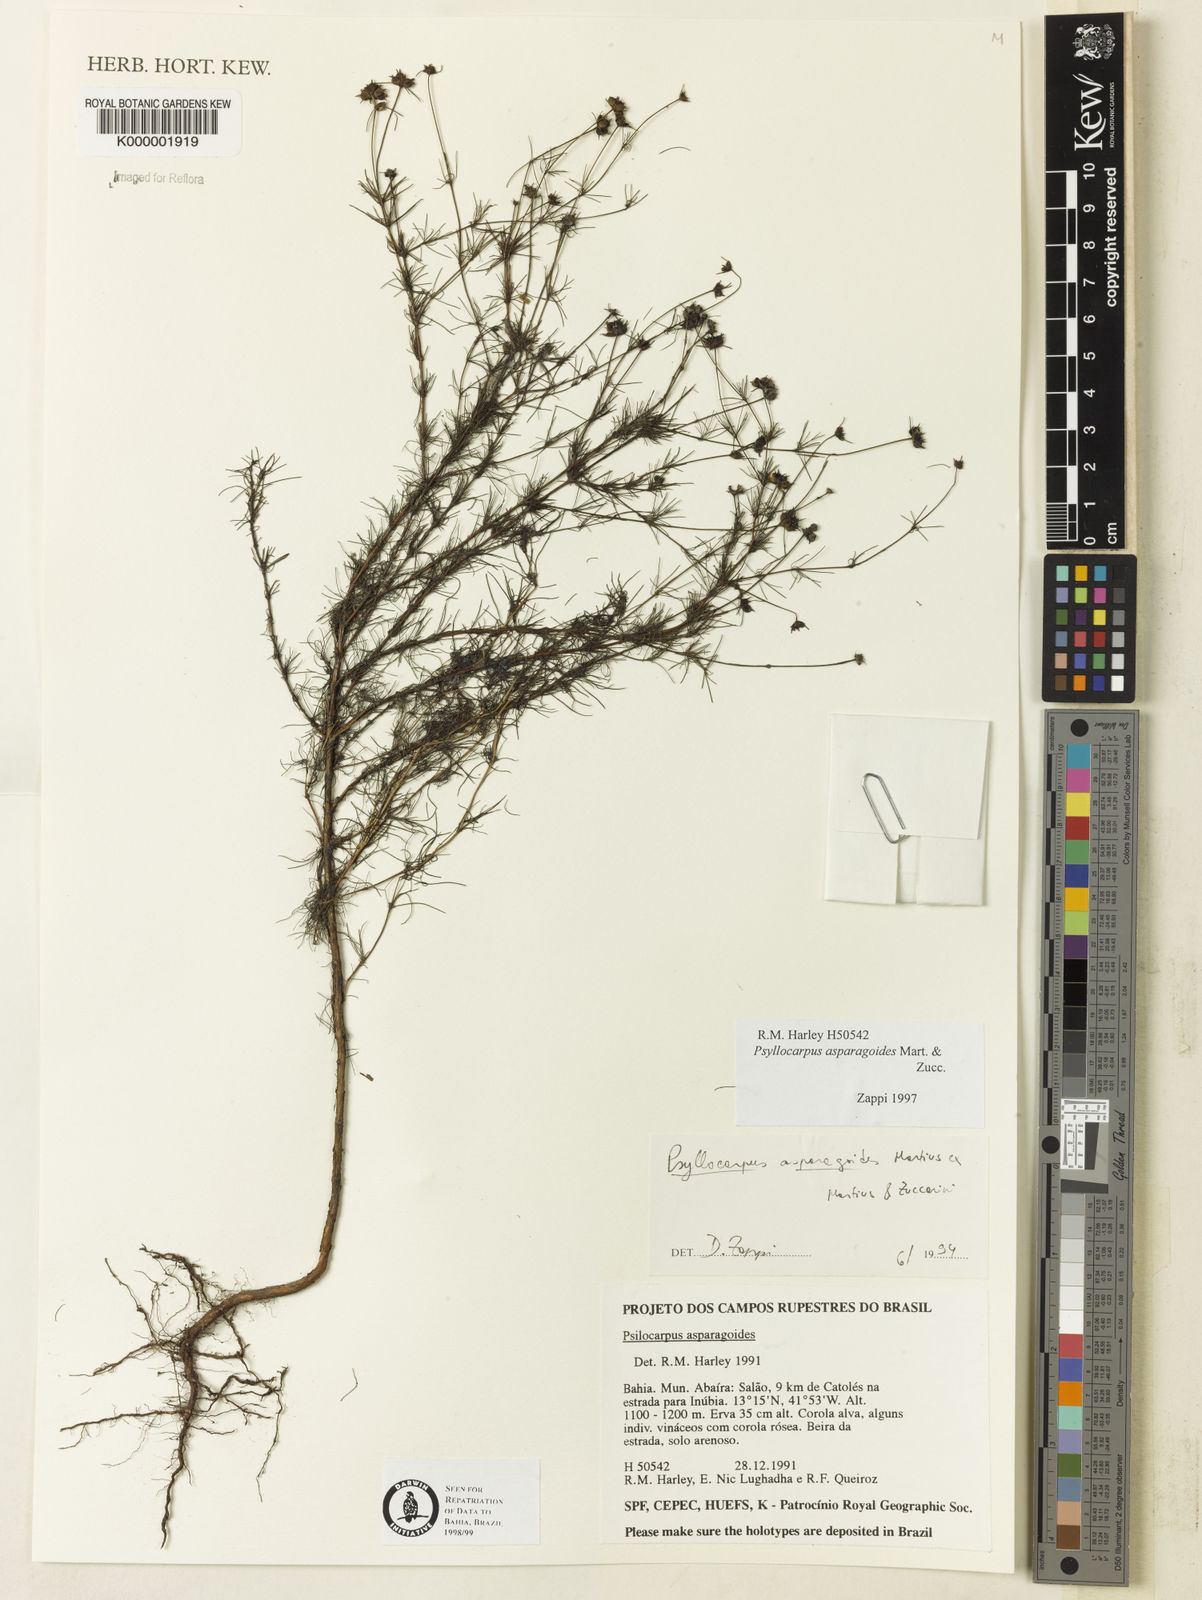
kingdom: Plantae
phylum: Tracheophyta
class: Magnoliopsida
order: Gentianales
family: Rubiaceae
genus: Psyllocarpus
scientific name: Psyllocarpus asparagoides
